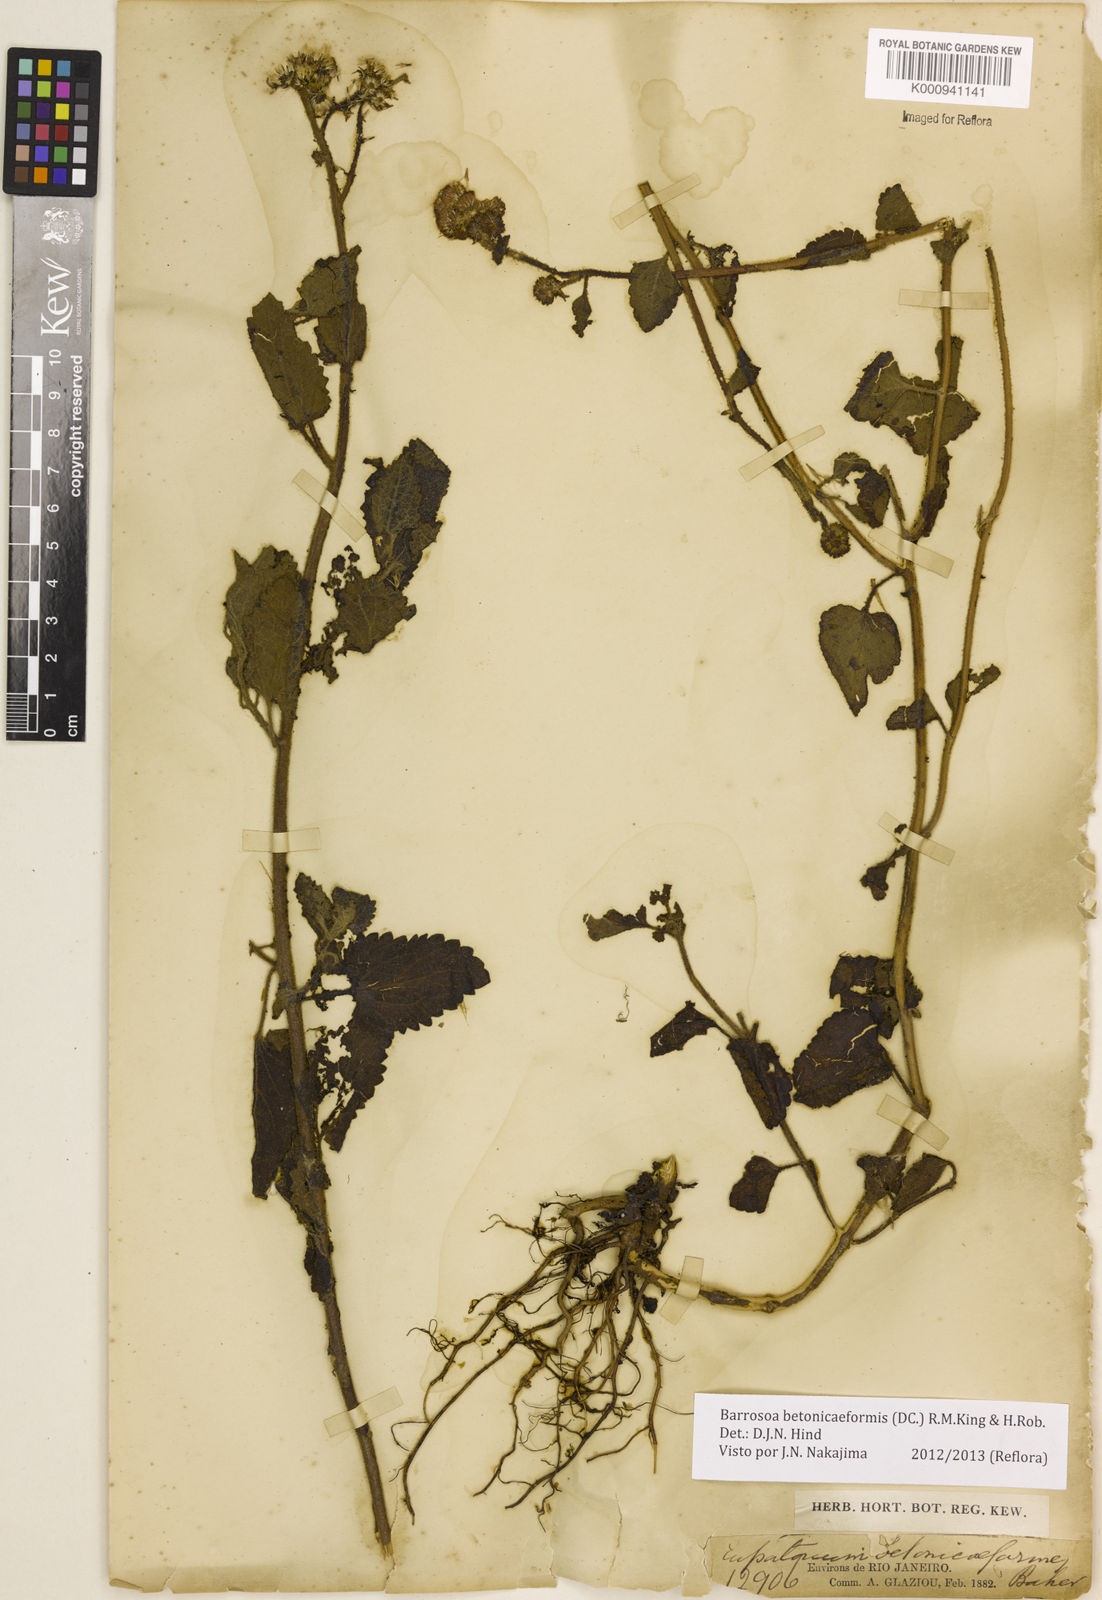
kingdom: Plantae
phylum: Tracheophyta
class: Magnoliopsida
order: Asterales
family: Asteraceae
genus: Barrosoa
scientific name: Barrosoa betoniciformis
